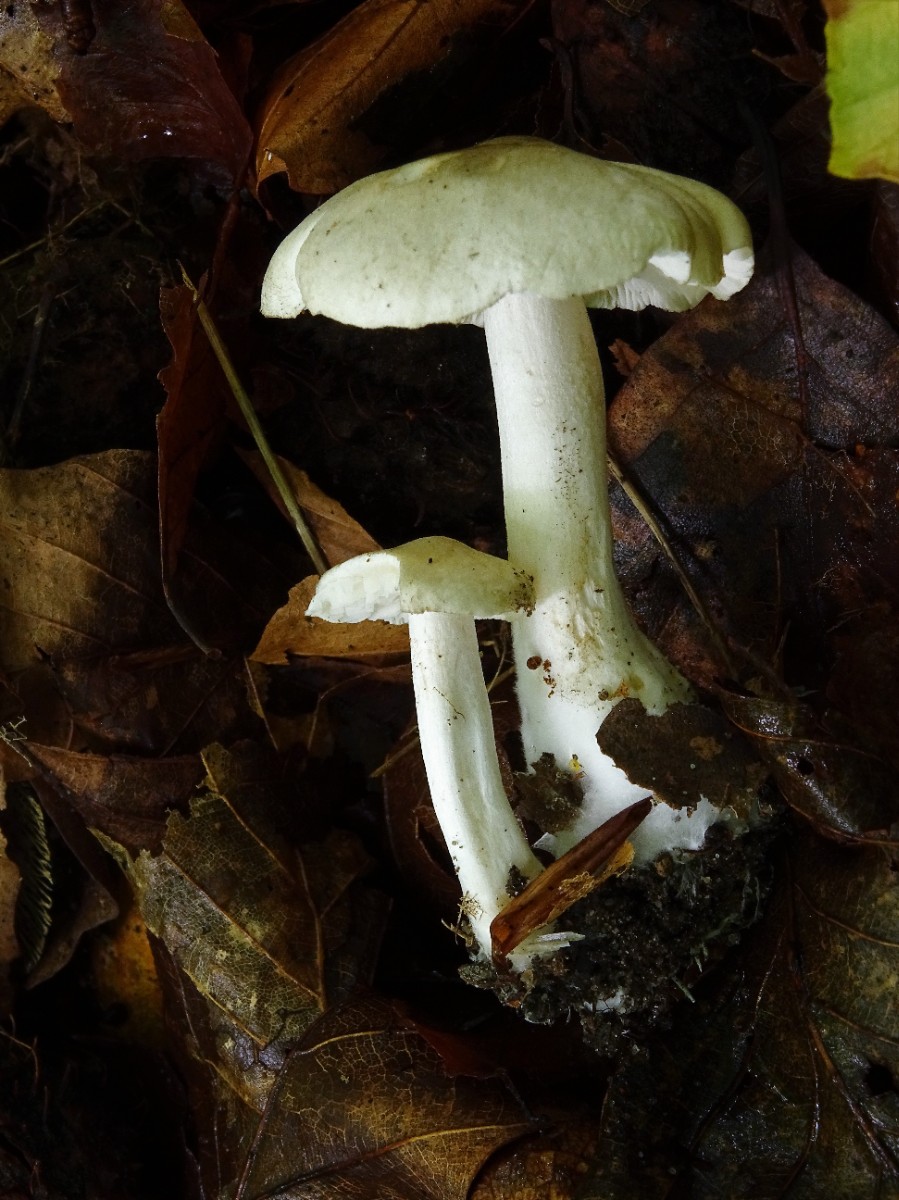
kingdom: Fungi
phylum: Basidiomycota
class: Agaricomycetes
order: Agaricales
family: Tricholomataceae
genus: Tricholoma
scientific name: Tricholoma lascivum
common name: stinkende ridderhat
